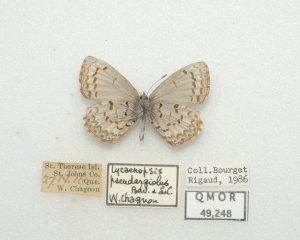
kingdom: Animalia
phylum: Arthropoda
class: Insecta
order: Lepidoptera
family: Lycaenidae
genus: Celastrina
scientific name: Celastrina lucia
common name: Northern Spring Azure
